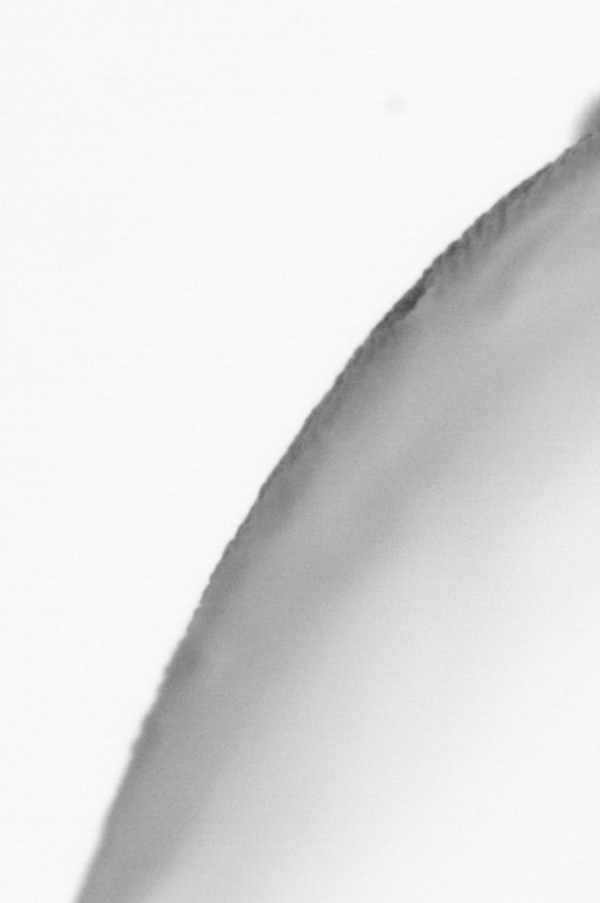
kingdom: Animalia
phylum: Chordata
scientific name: Chordata
